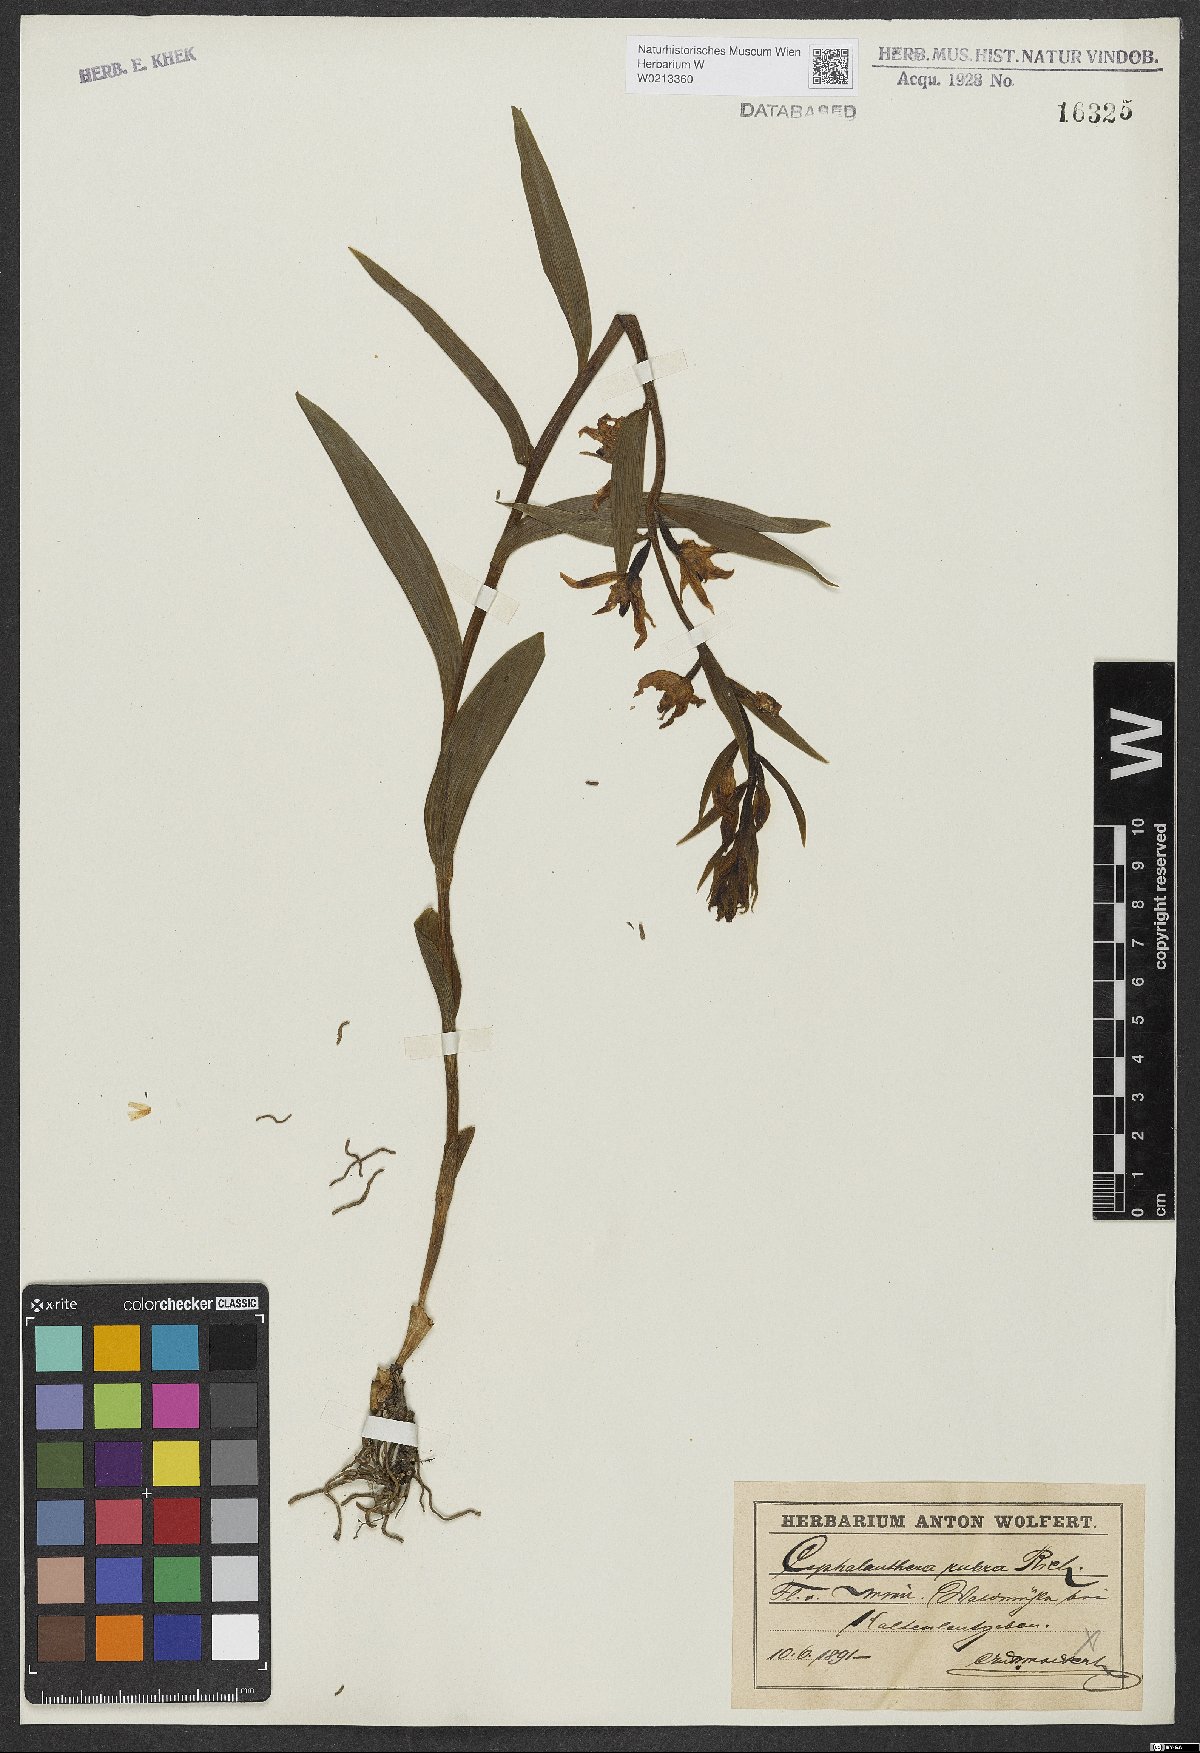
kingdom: Plantae
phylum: Tracheophyta
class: Liliopsida
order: Asparagales
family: Orchidaceae
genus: Cephalanthera
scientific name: Cephalanthera rubra
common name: Red helleborine
